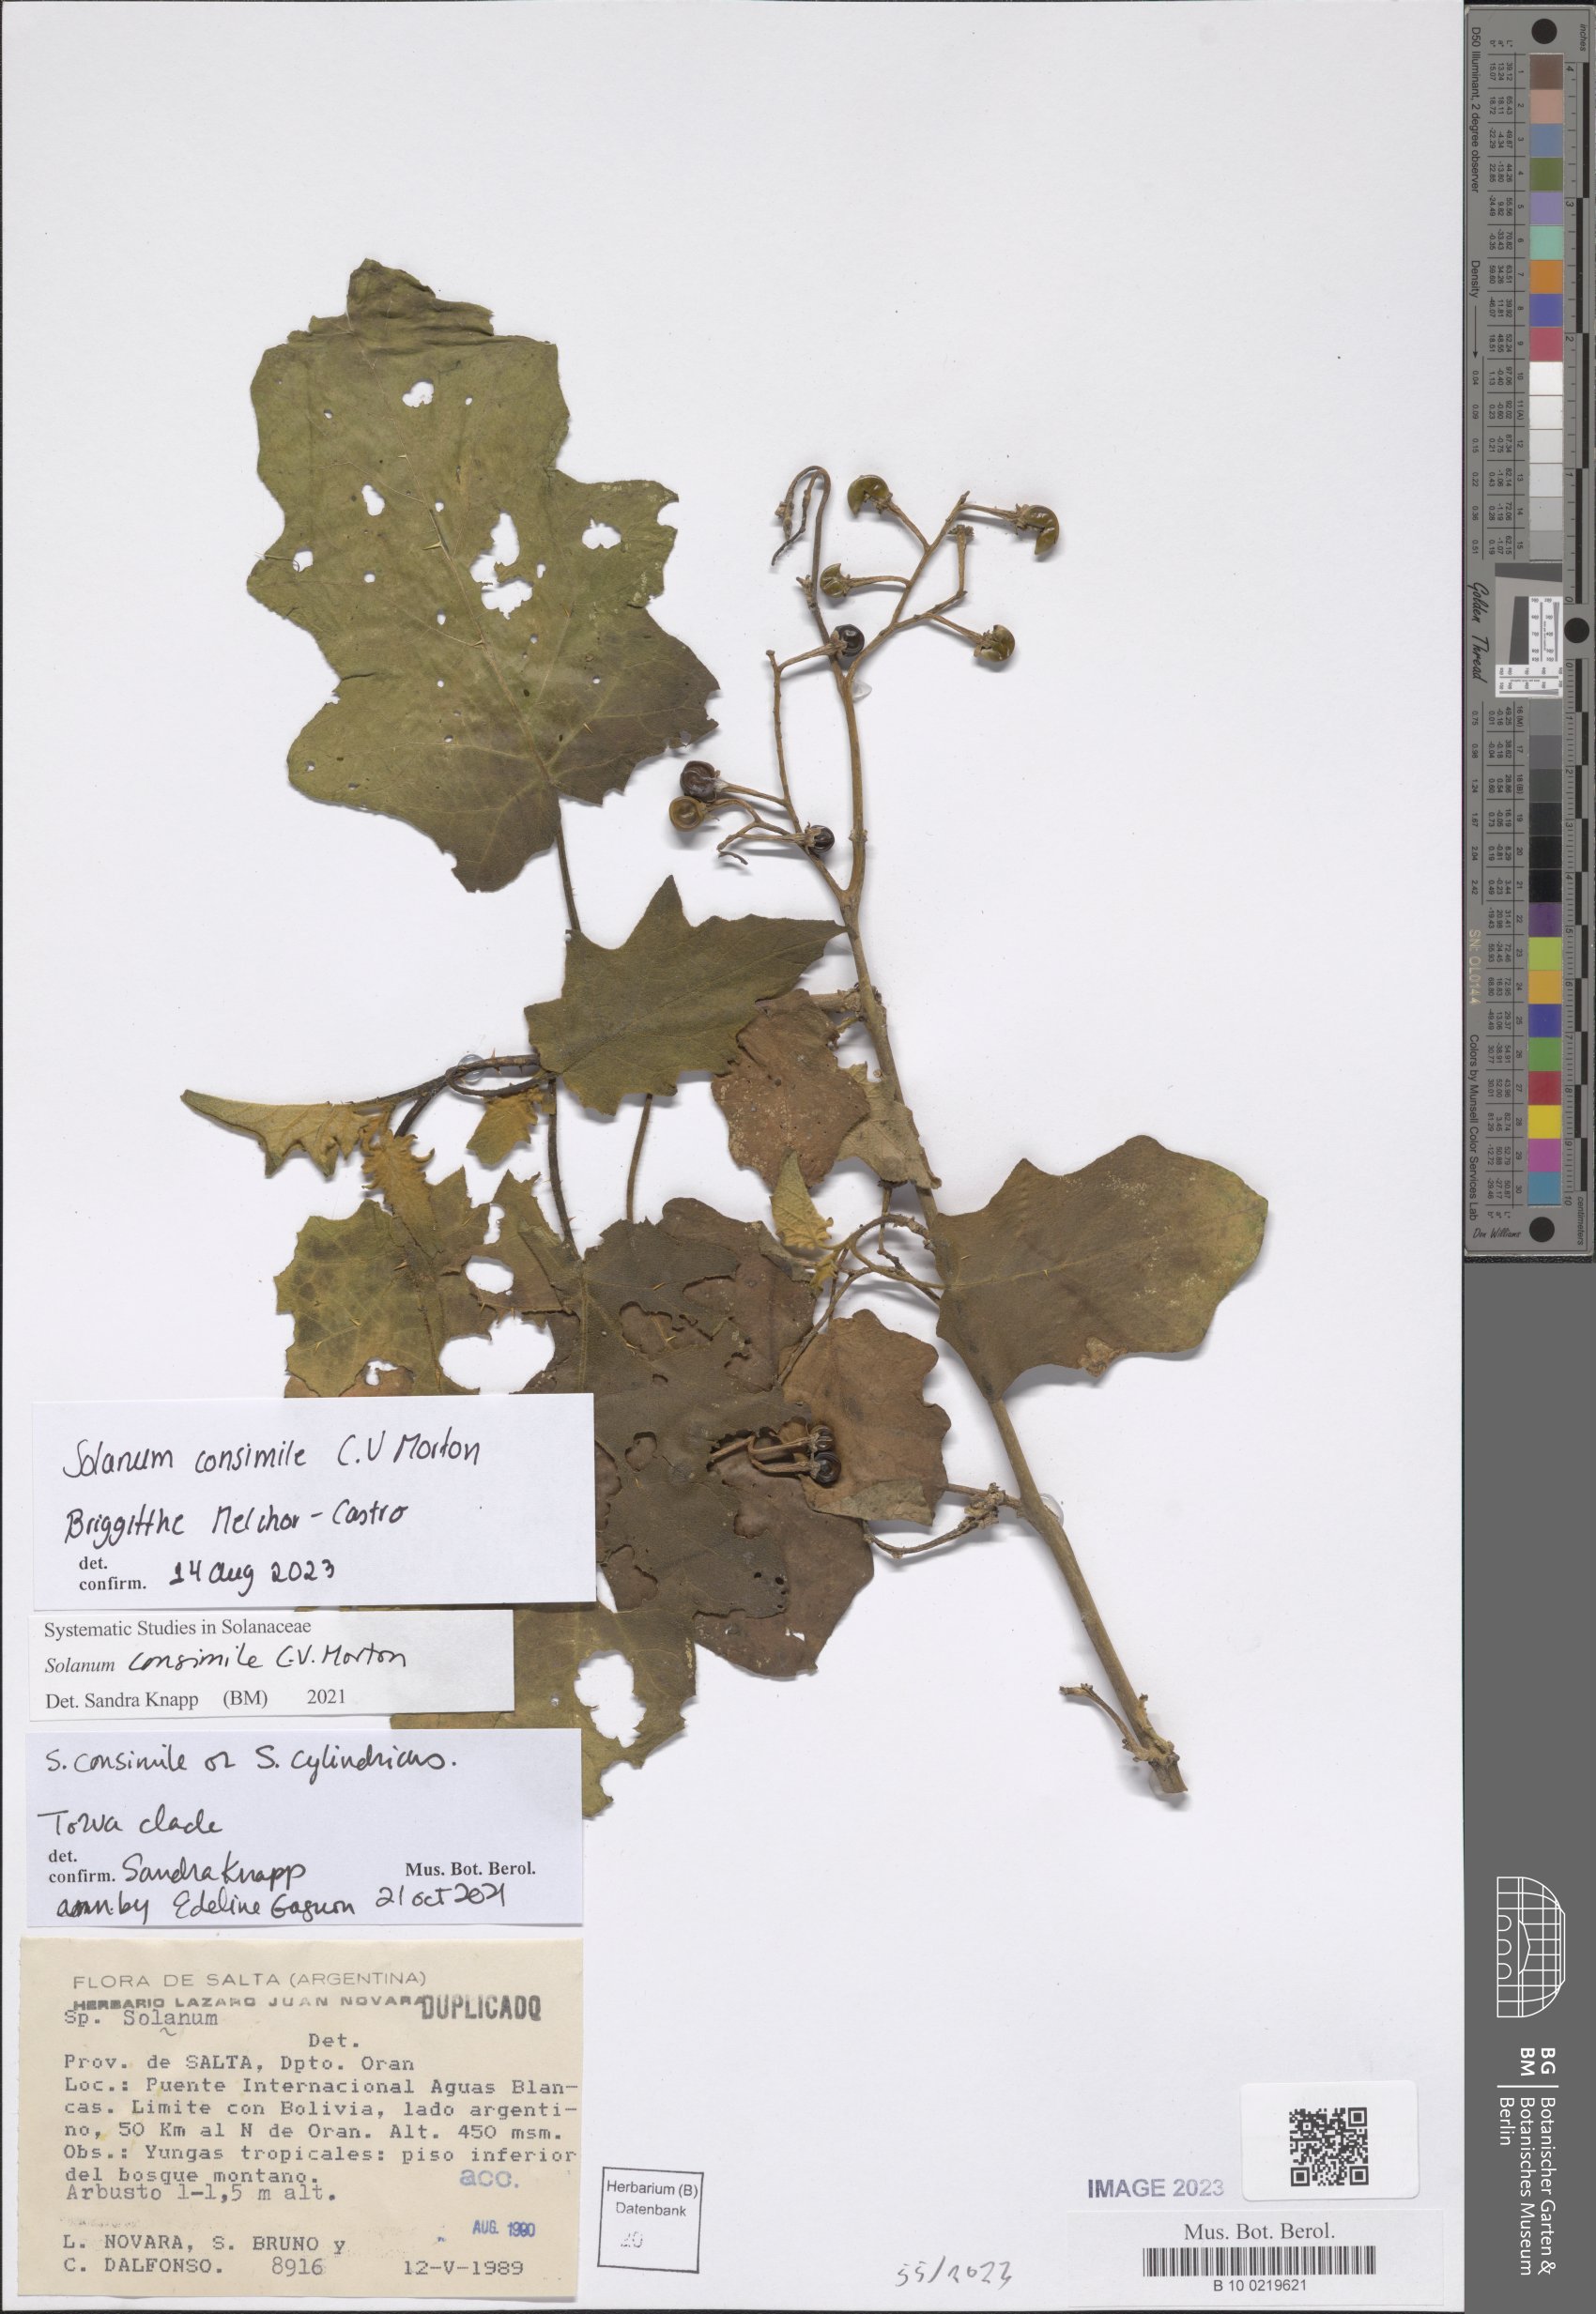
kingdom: Plantae
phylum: Tracheophyta
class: Magnoliopsida
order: Solanales
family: Solanaceae
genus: Solanum
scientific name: Solanum consimile
